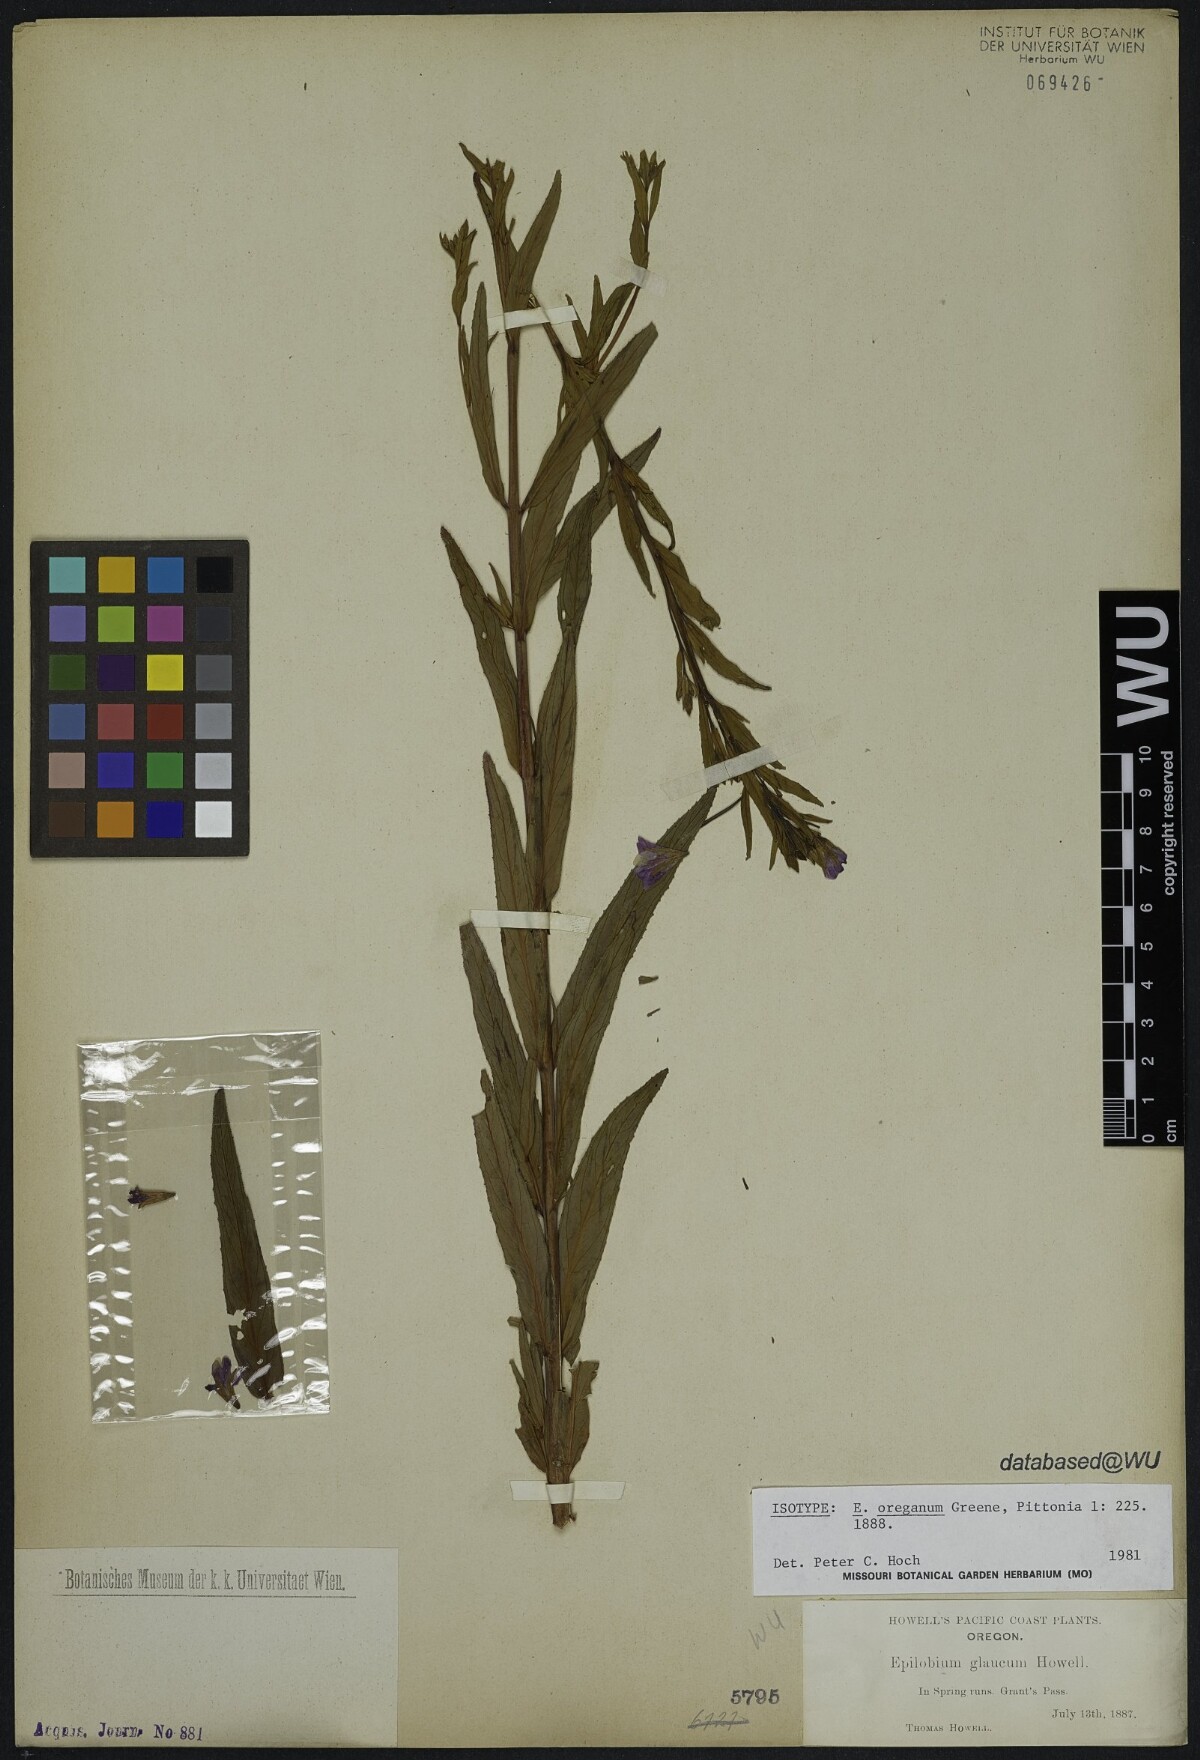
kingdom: Plantae
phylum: Tracheophyta
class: Magnoliopsida
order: Myrtales
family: Onagraceae
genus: Epilobium
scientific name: Epilobium oreganum
